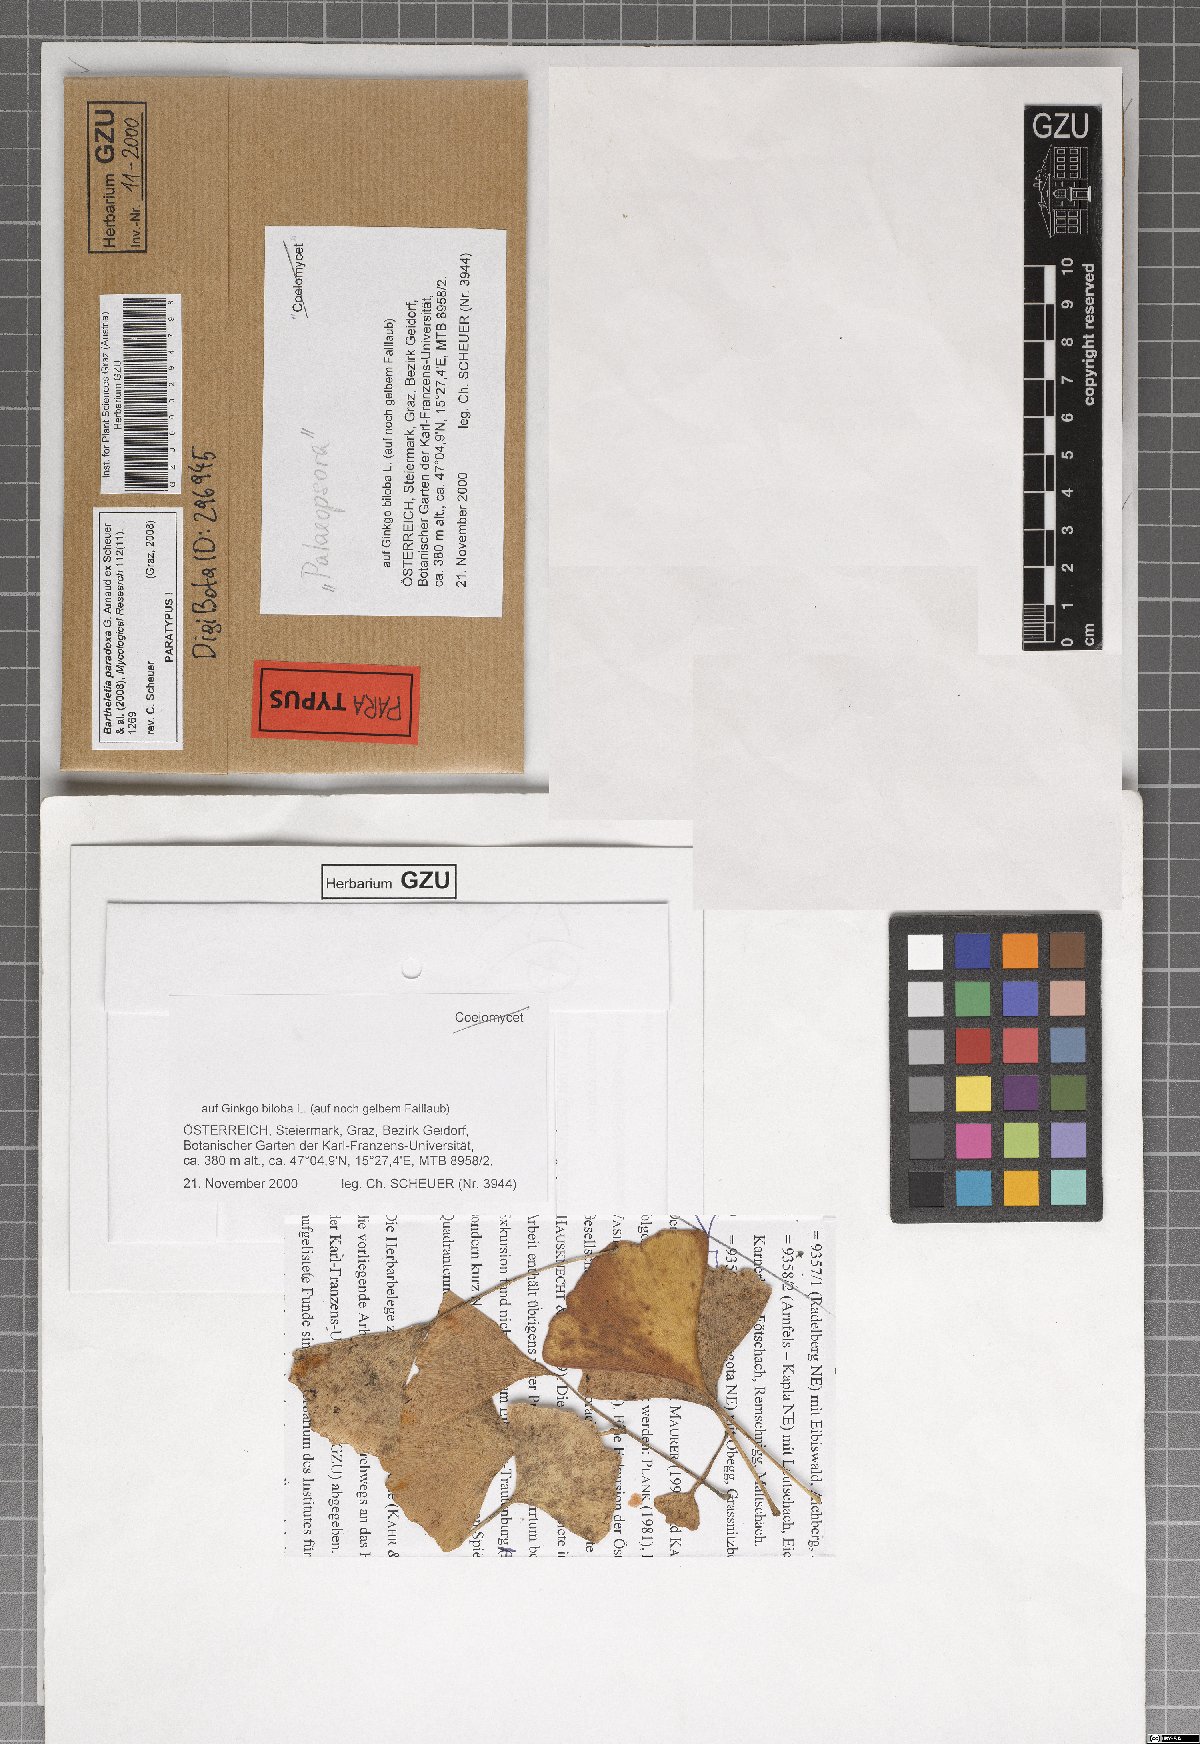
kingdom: Fungi
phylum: Basidiomycota
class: Wallemiomycetes
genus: Bartheletia
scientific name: Bartheletia paradoxa
